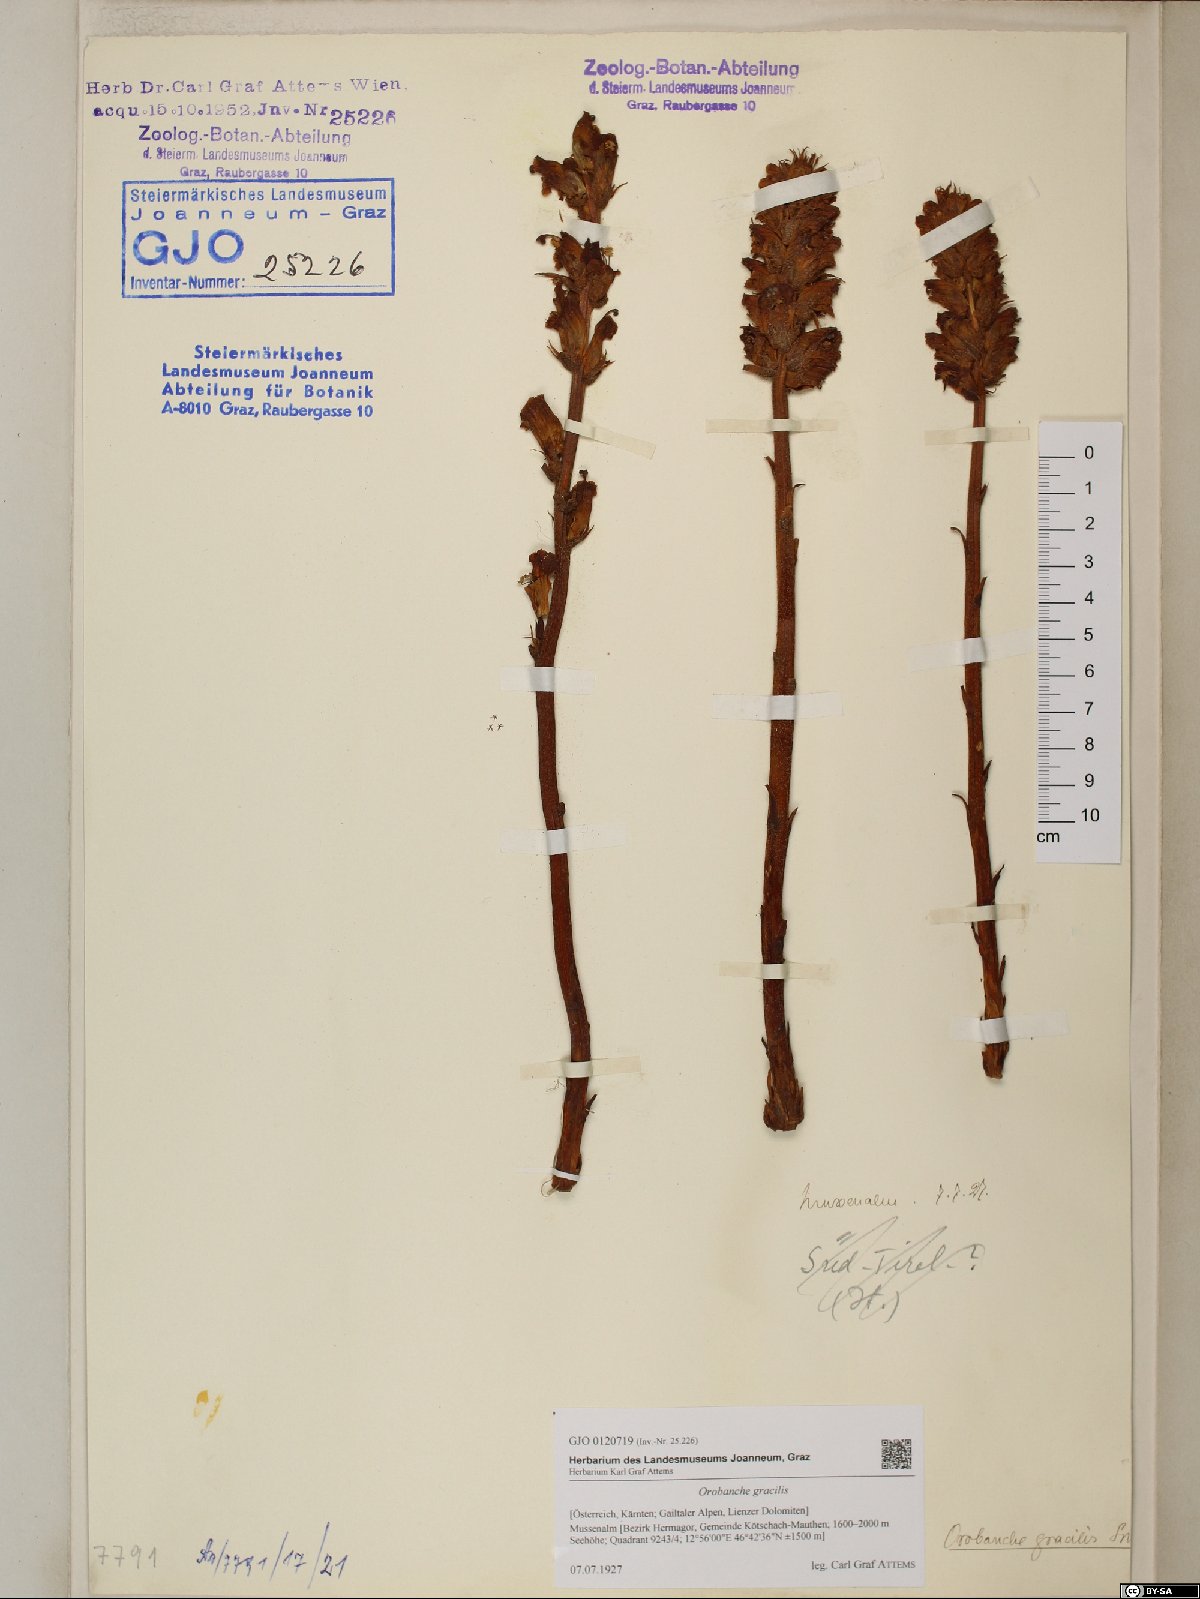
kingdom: Plantae
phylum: Tracheophyta
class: Magnoliopsida
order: Lamiales
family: Orobanchaceae
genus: Orobanche
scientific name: Orobanche gracilis
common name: Slender broomrape
